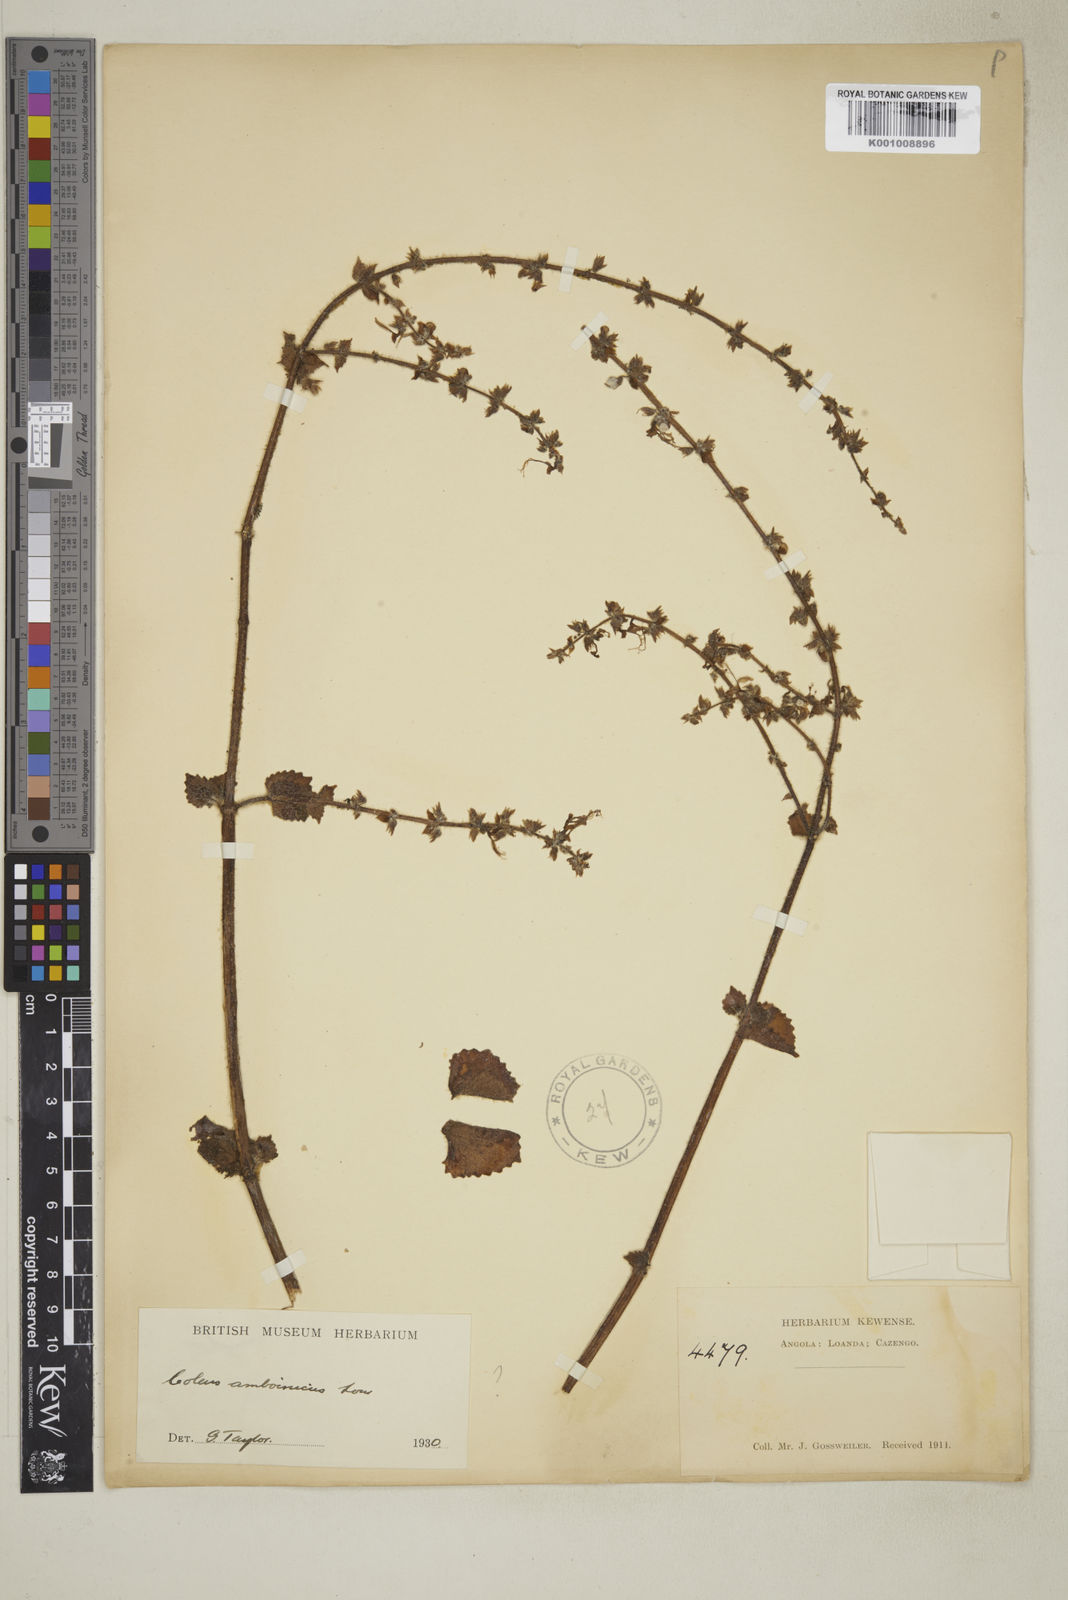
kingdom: Plantae
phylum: Tracheophyta
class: Magnoliopsida
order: Lamiales
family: Lamiaceae
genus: Coleus
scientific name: Coleus amboinicus
